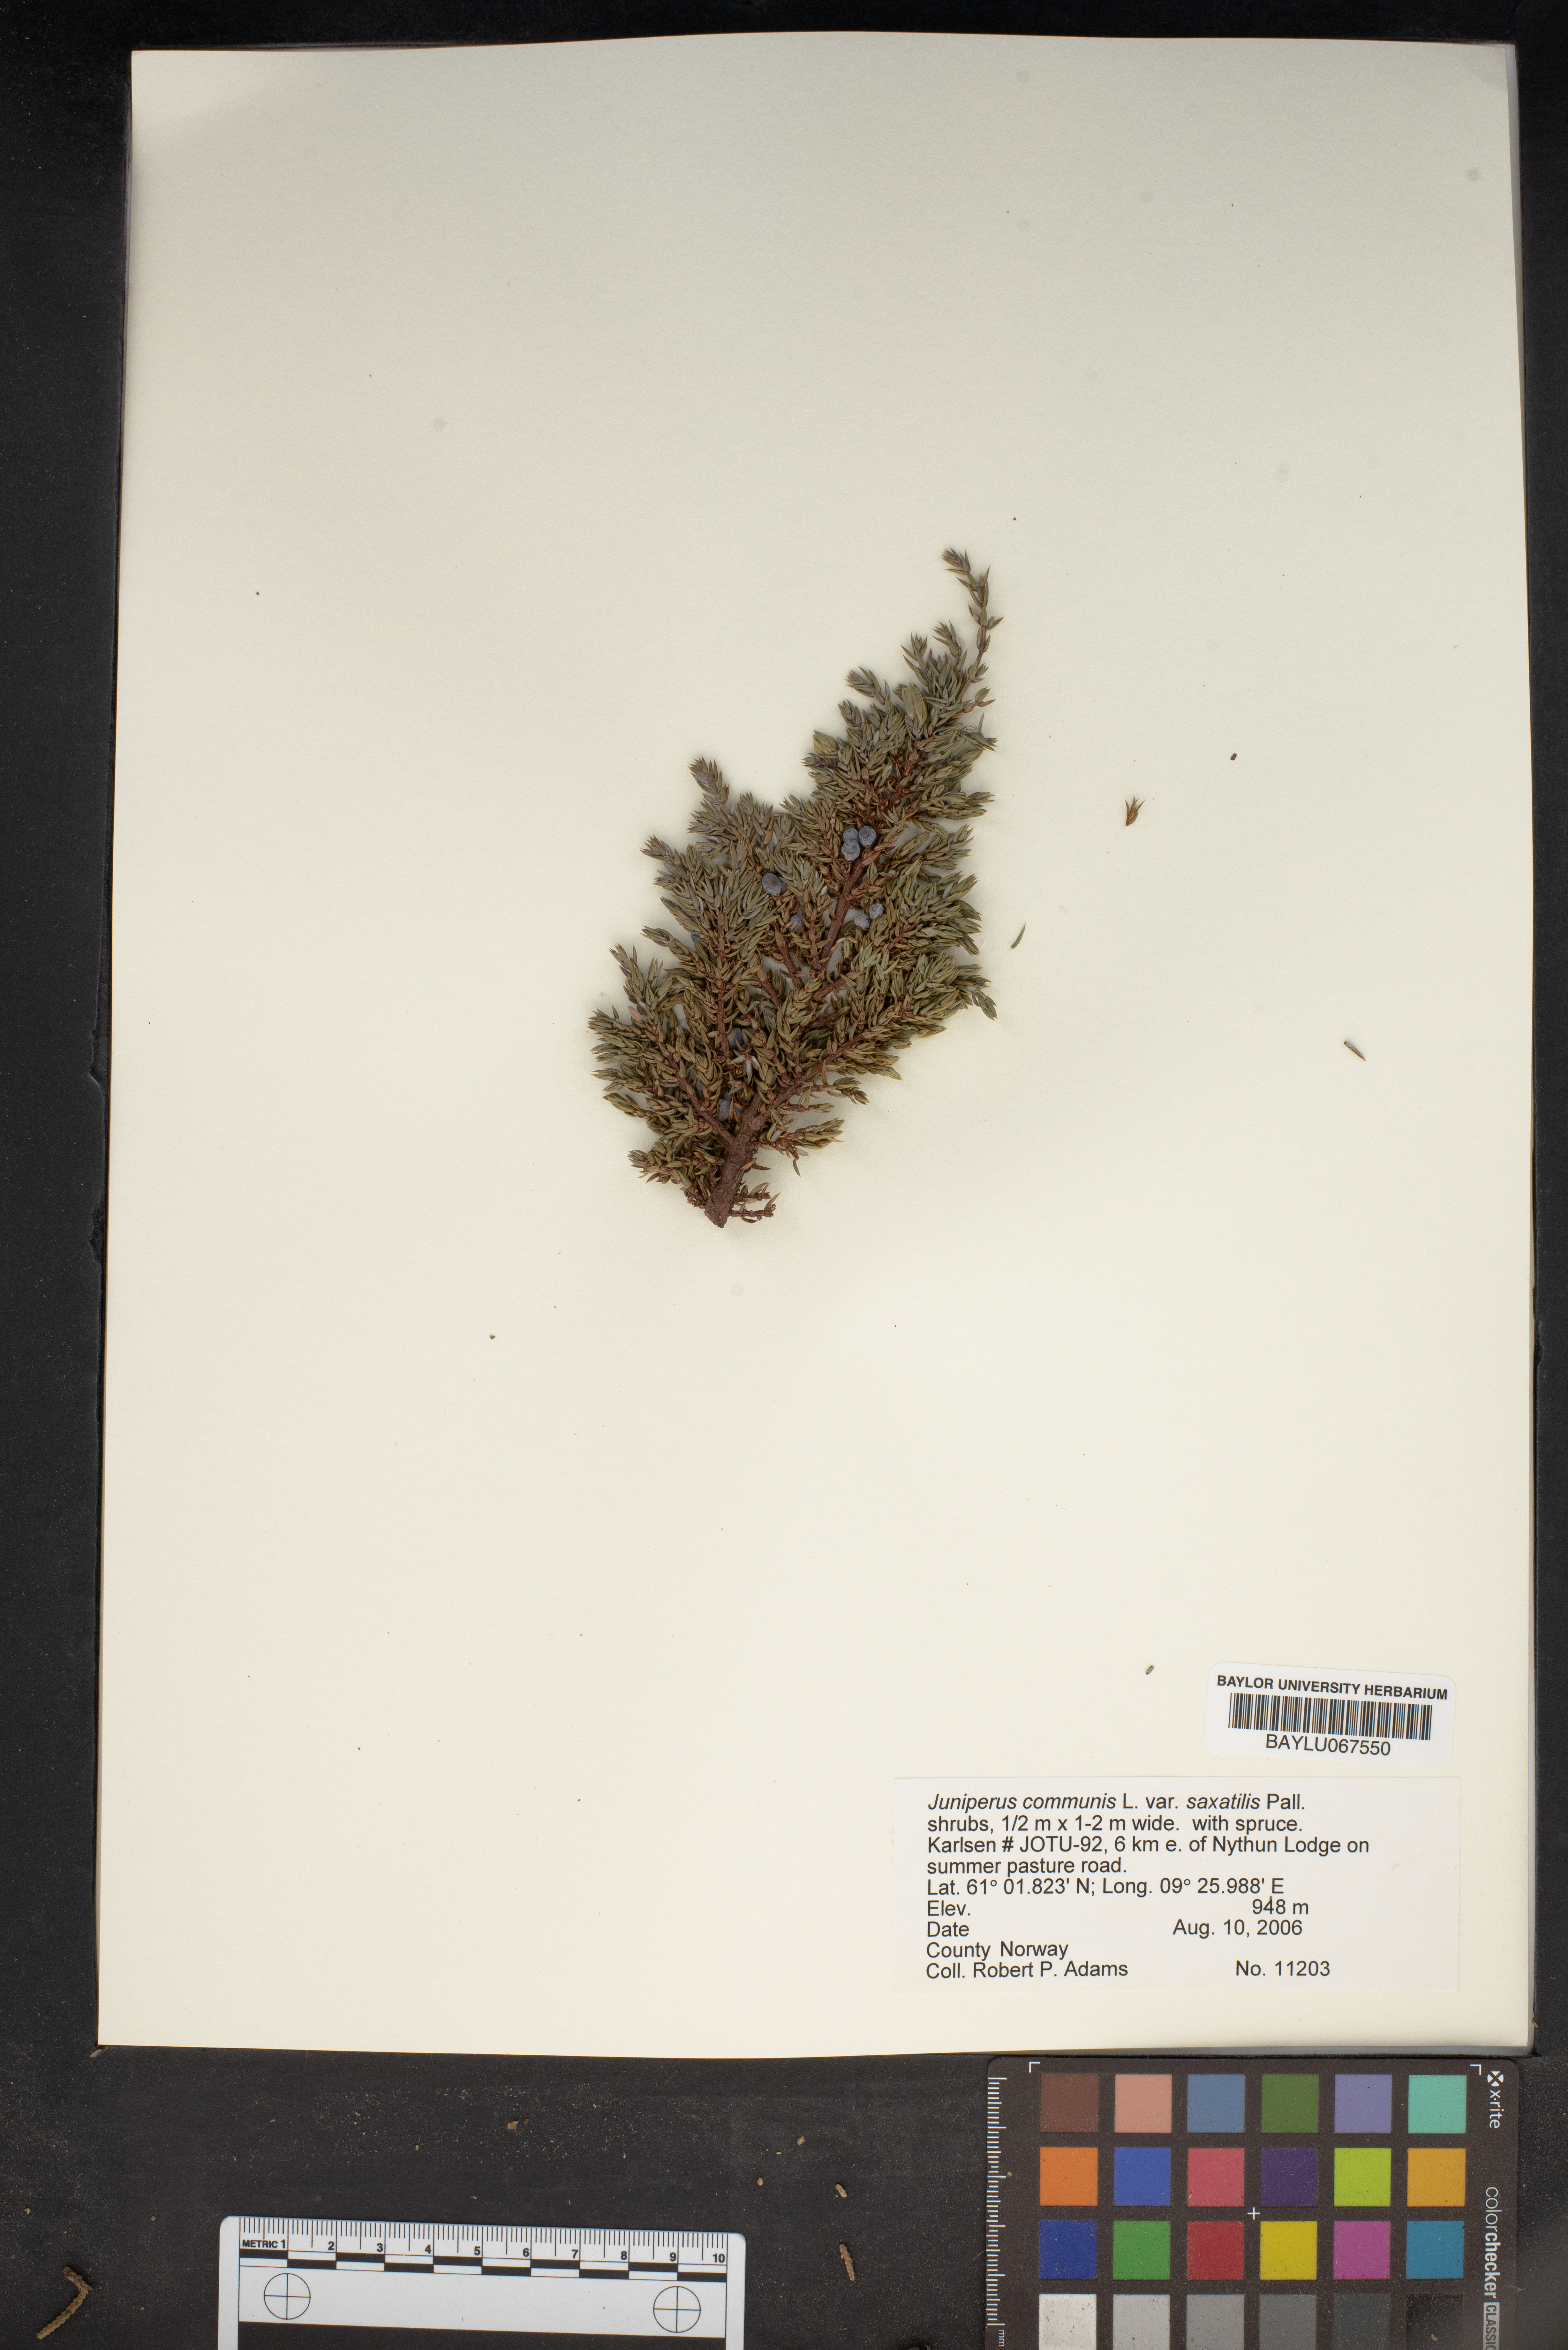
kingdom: Plantae
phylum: Tracheophyta
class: Pinopsida
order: Pinales
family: Cupressaceae
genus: Juniperus
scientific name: Juniperus communis
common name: Common juniper
